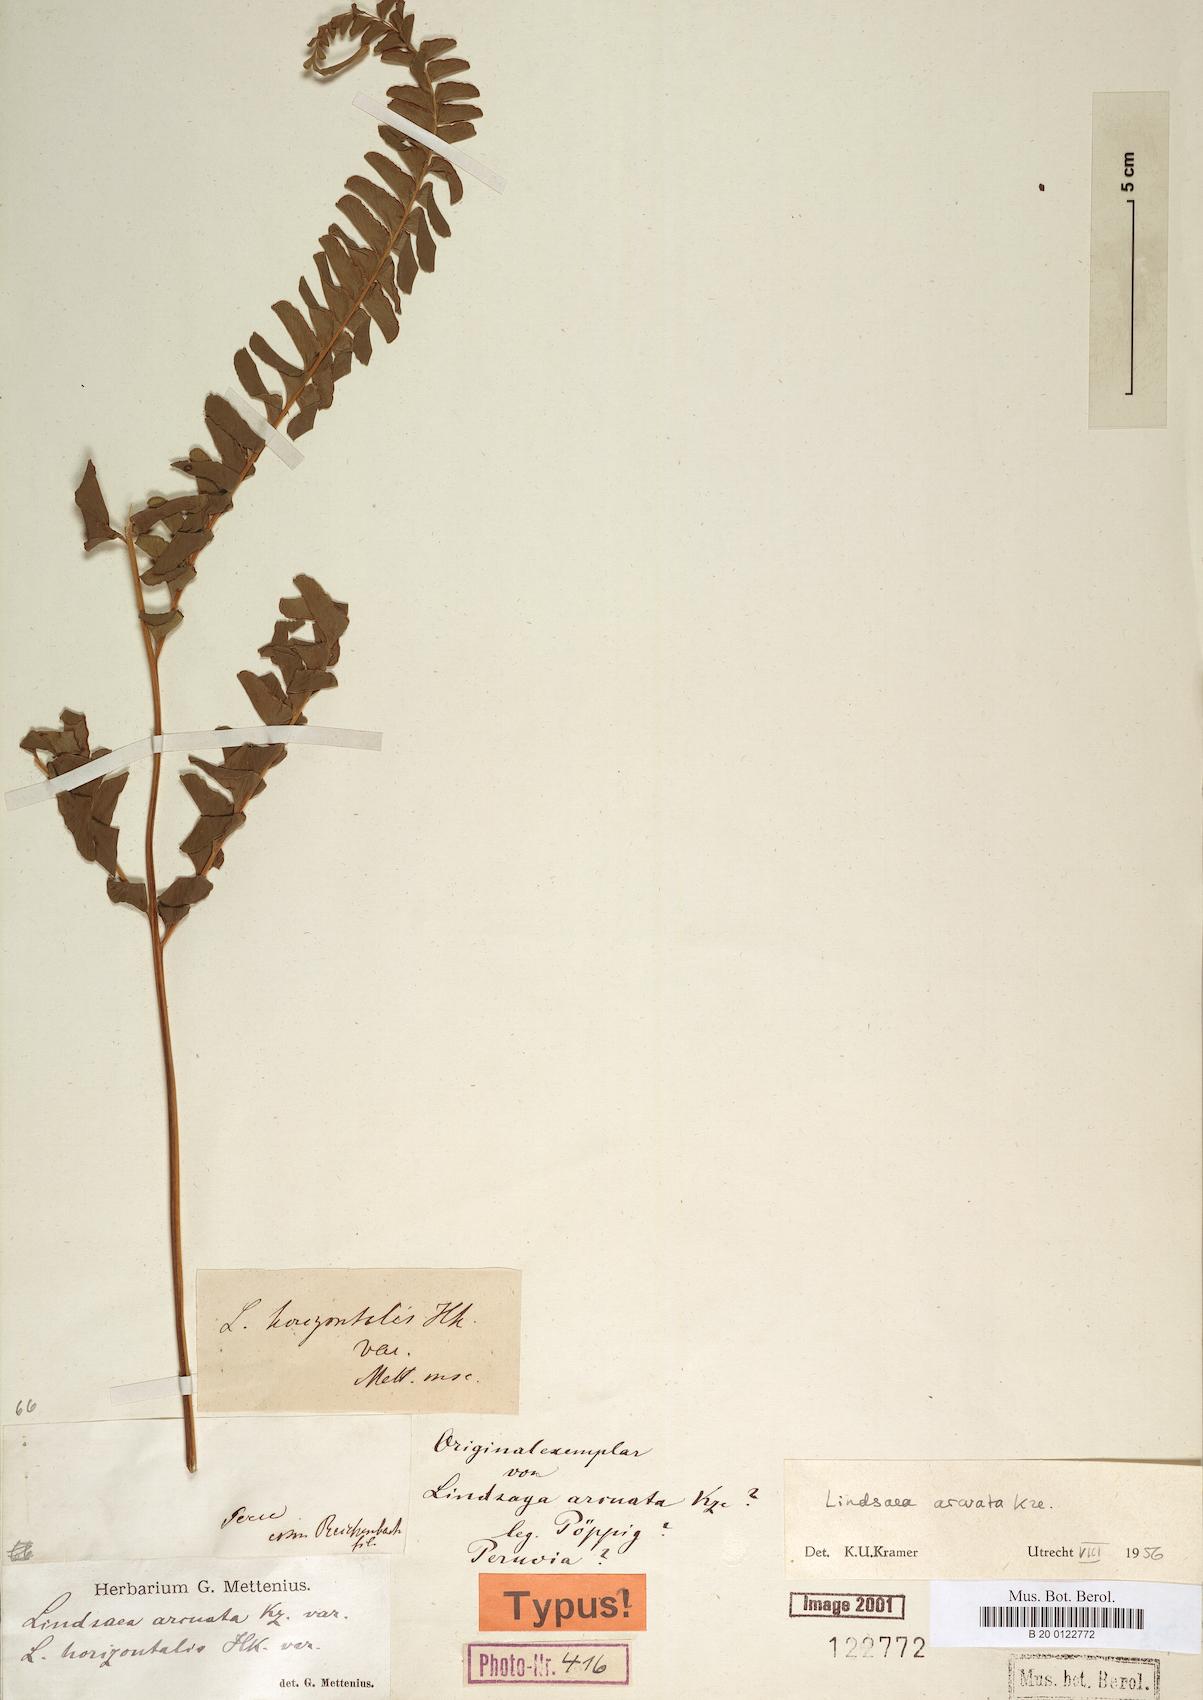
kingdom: Plantae
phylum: Tracheophyta
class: Polypodiopsida
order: Polypodiales
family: Lindsaeaceae
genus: Lindsaea
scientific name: Lindsaea arcuata
